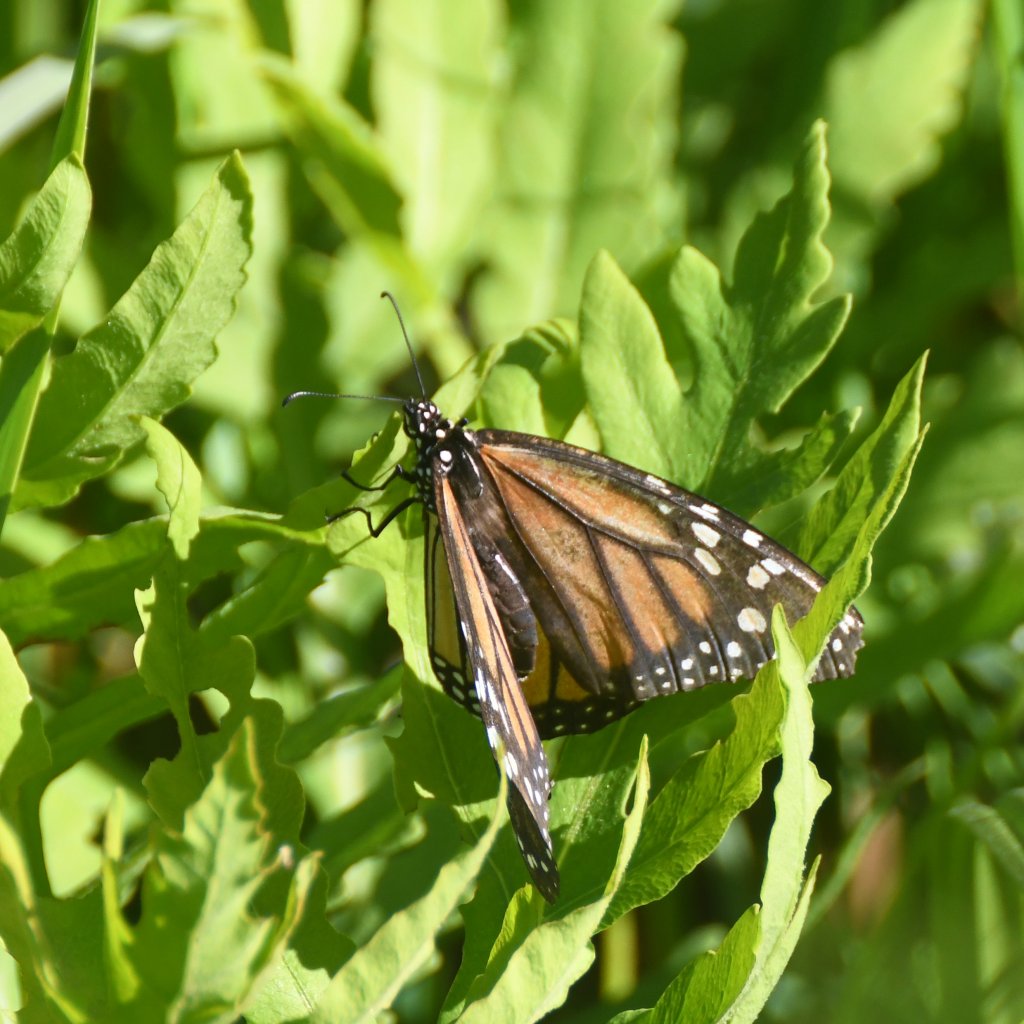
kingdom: Animalia
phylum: Arthropoda
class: Insecta
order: Lepidoptera
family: Nymphalidae
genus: Danaus
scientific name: Danaus plexippus
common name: Monarch
